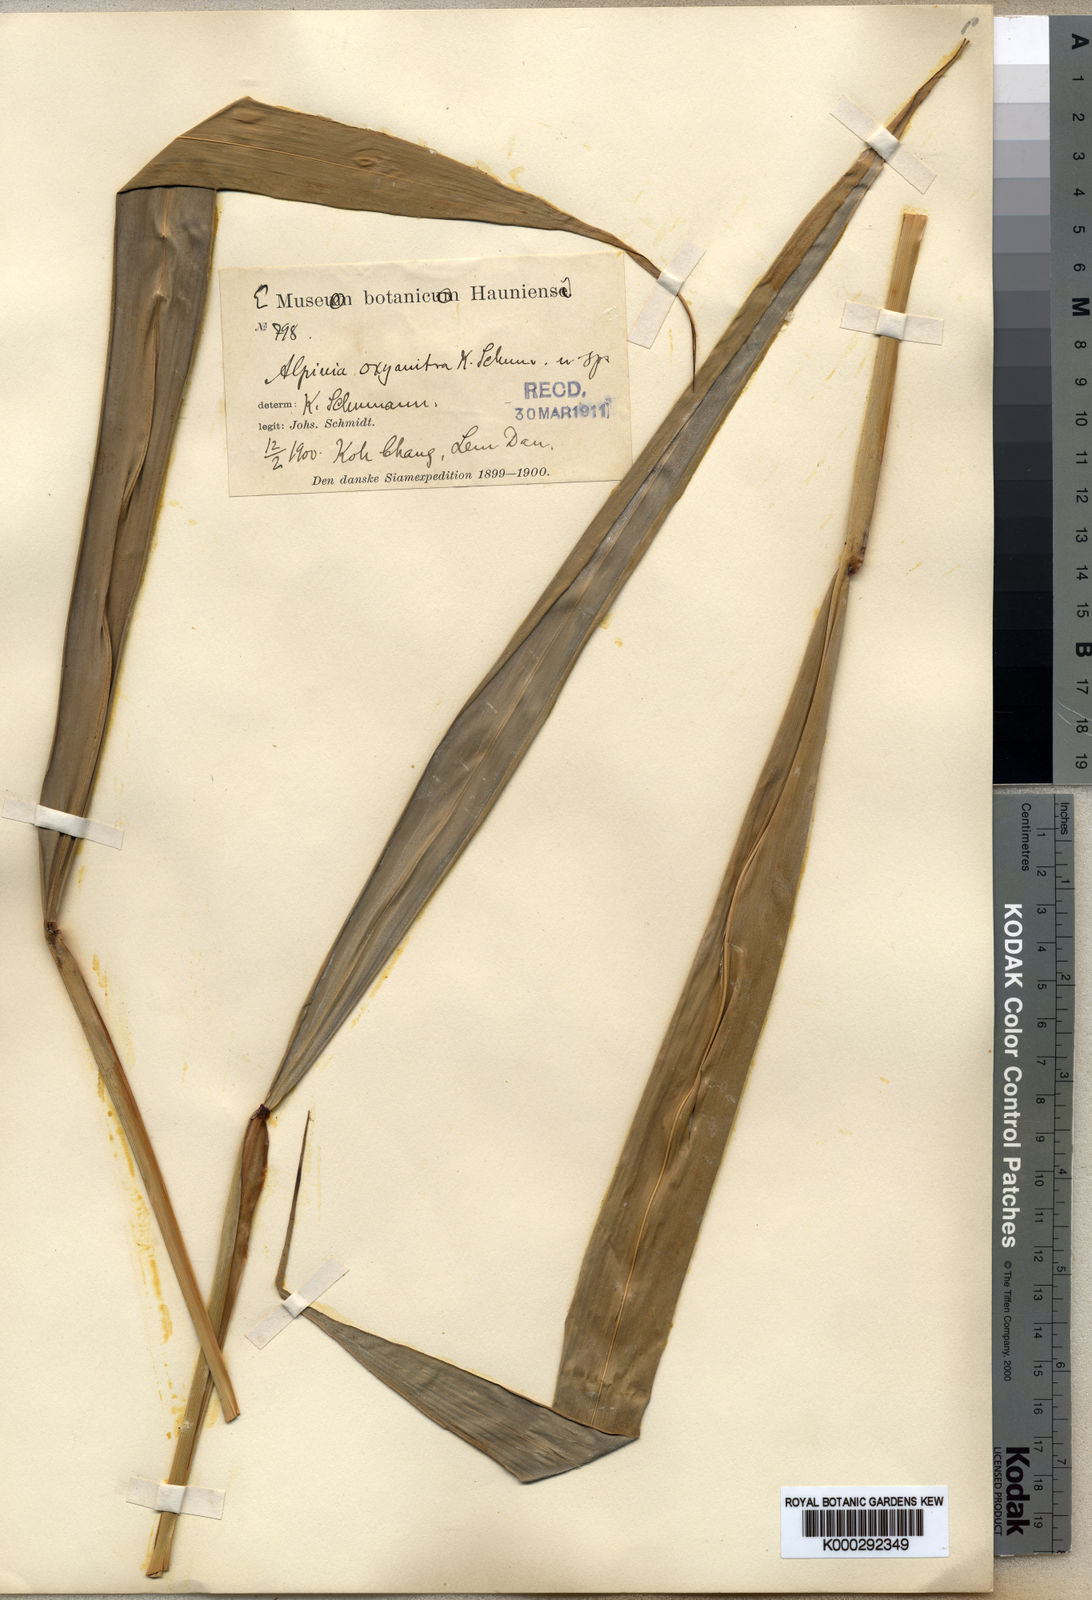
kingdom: Plantae
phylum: Tracheophyta
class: Liliopsida
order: Zingiberales
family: Zingiberaceae
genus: Alpinia
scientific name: Alpinia oxymitra
